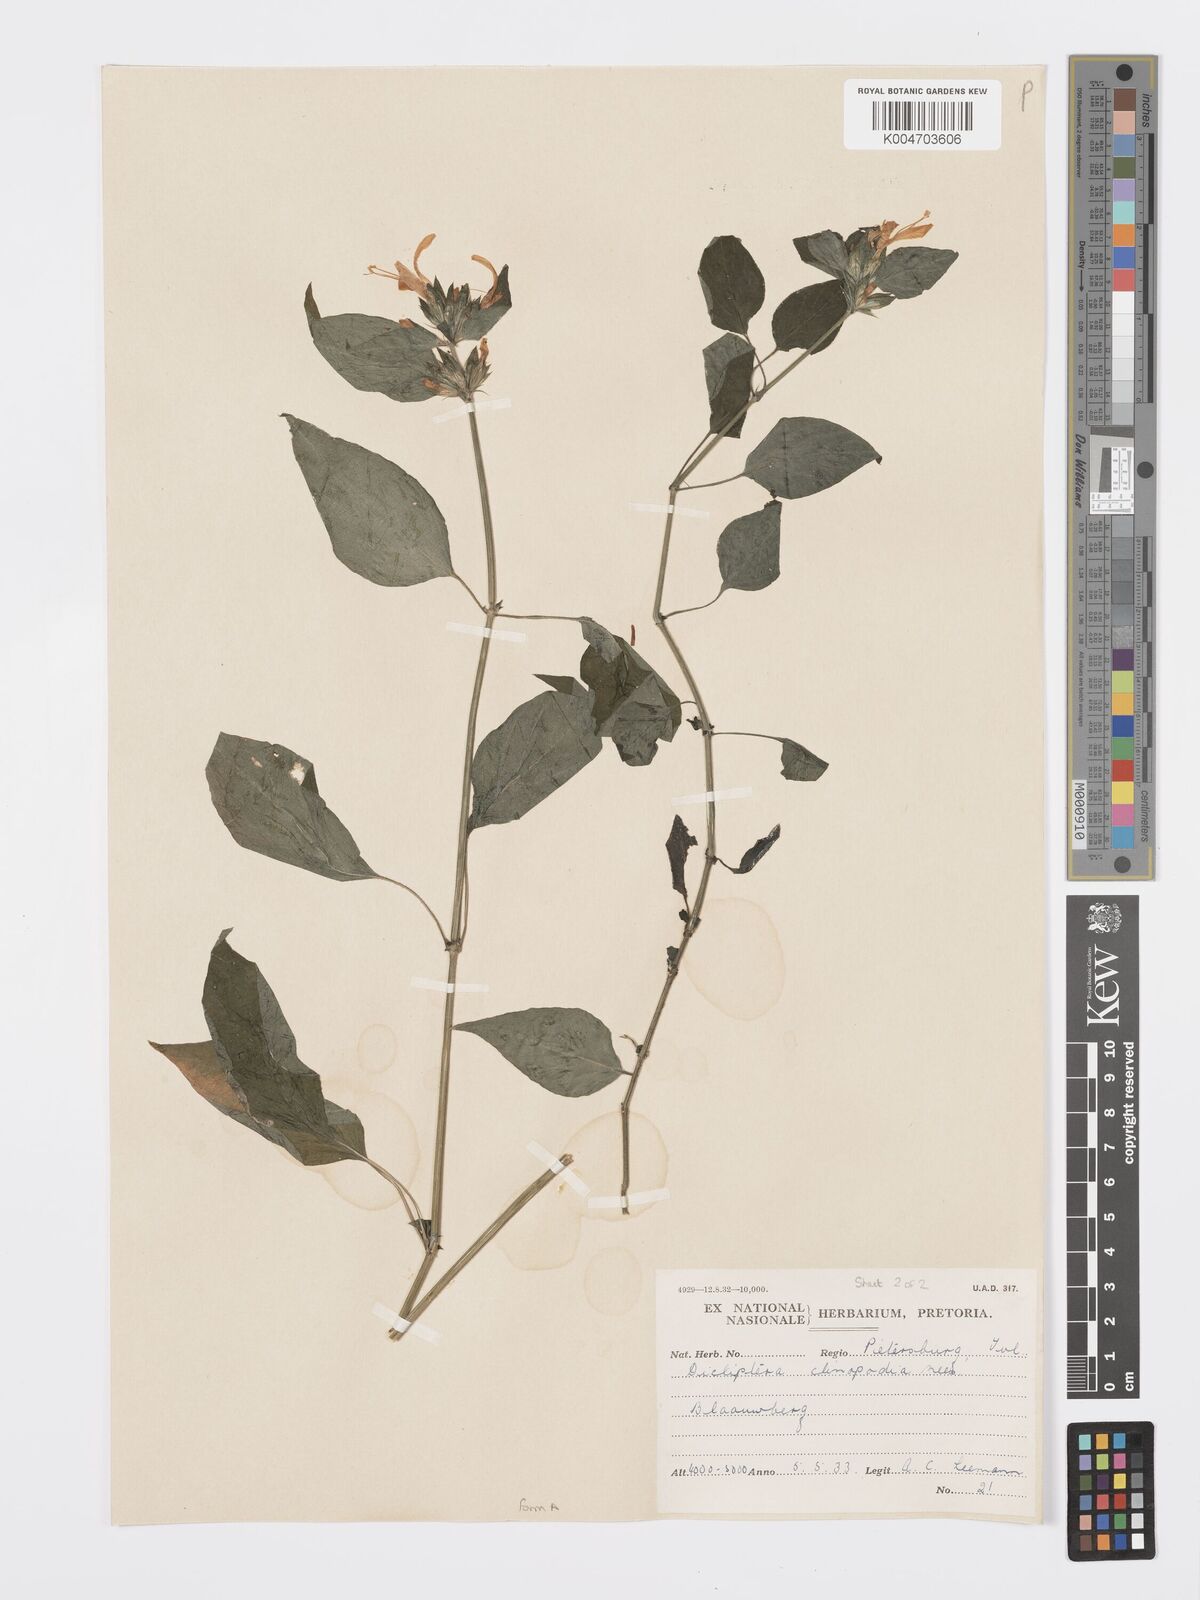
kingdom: Plantae
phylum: Tracheophyta
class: Magnoliopsida
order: Lamiales
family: Acanthaceae
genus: Dicliptera
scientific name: Dicliptera clinopodia
